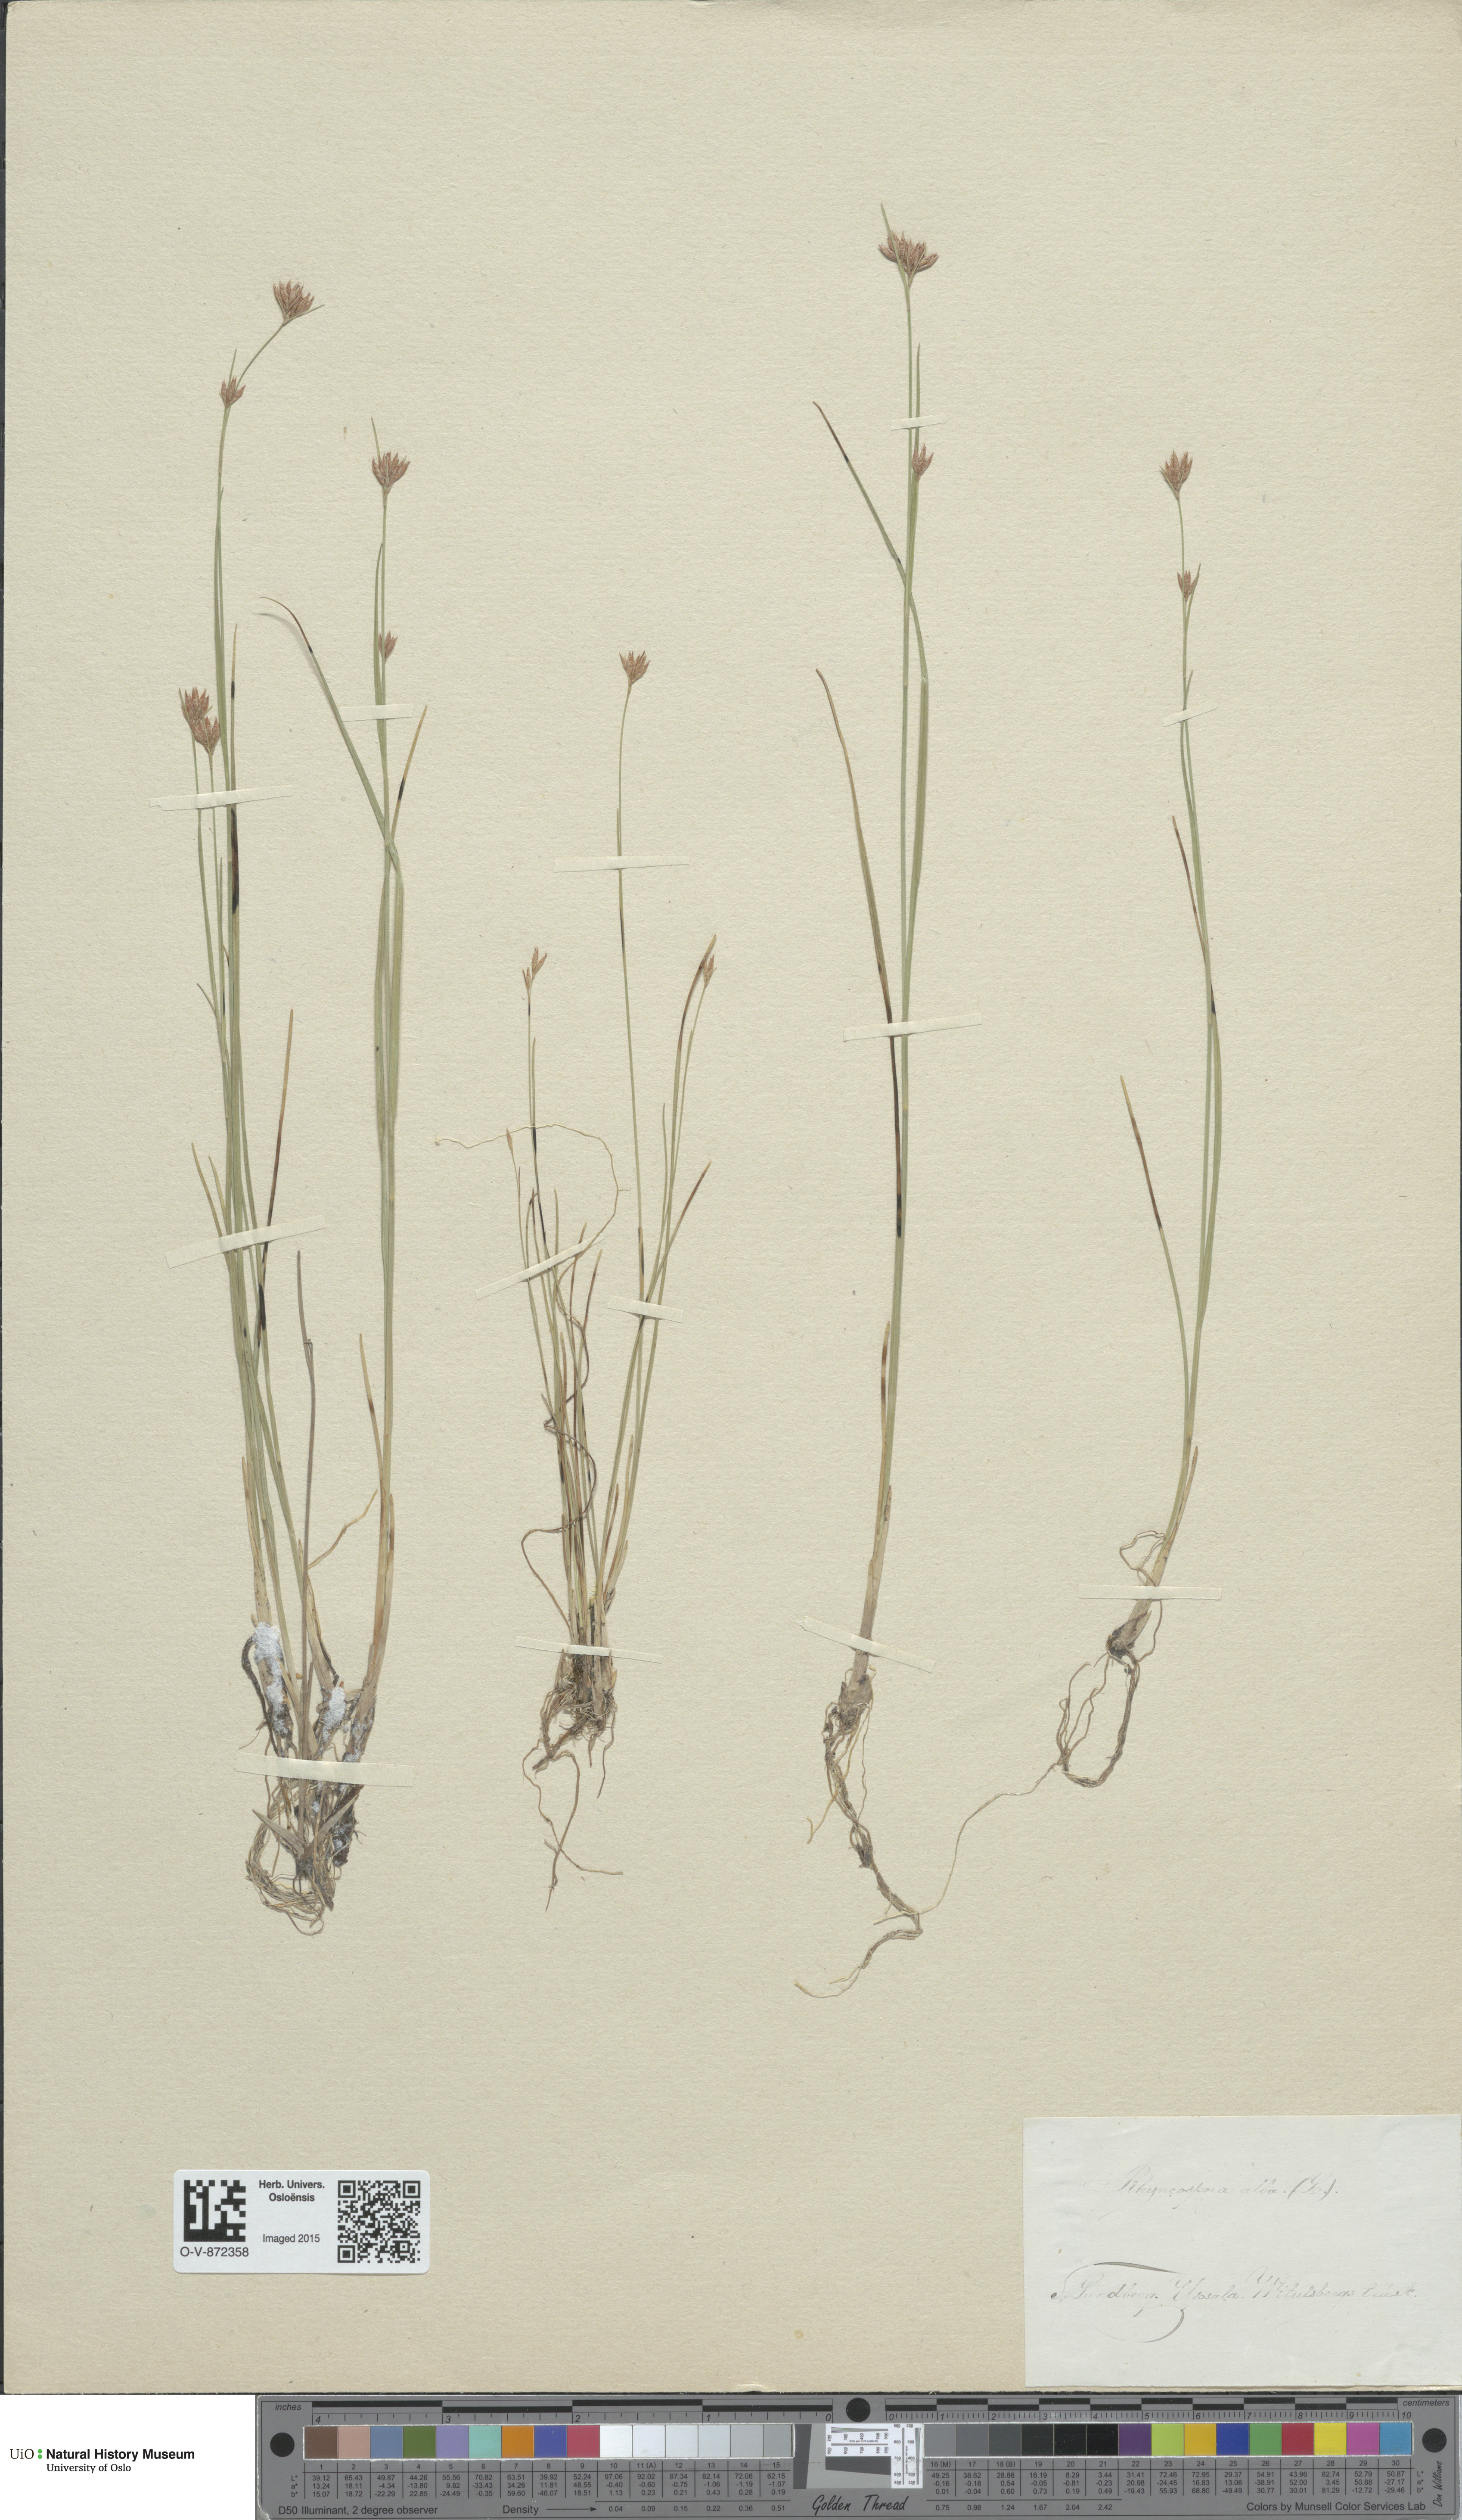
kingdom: Plantae
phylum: Tracheophyta
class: Liliopsida
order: Poales
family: Cyperaceae
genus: Rhynchospora
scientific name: Rhynchospora alba
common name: White beak-sedge
